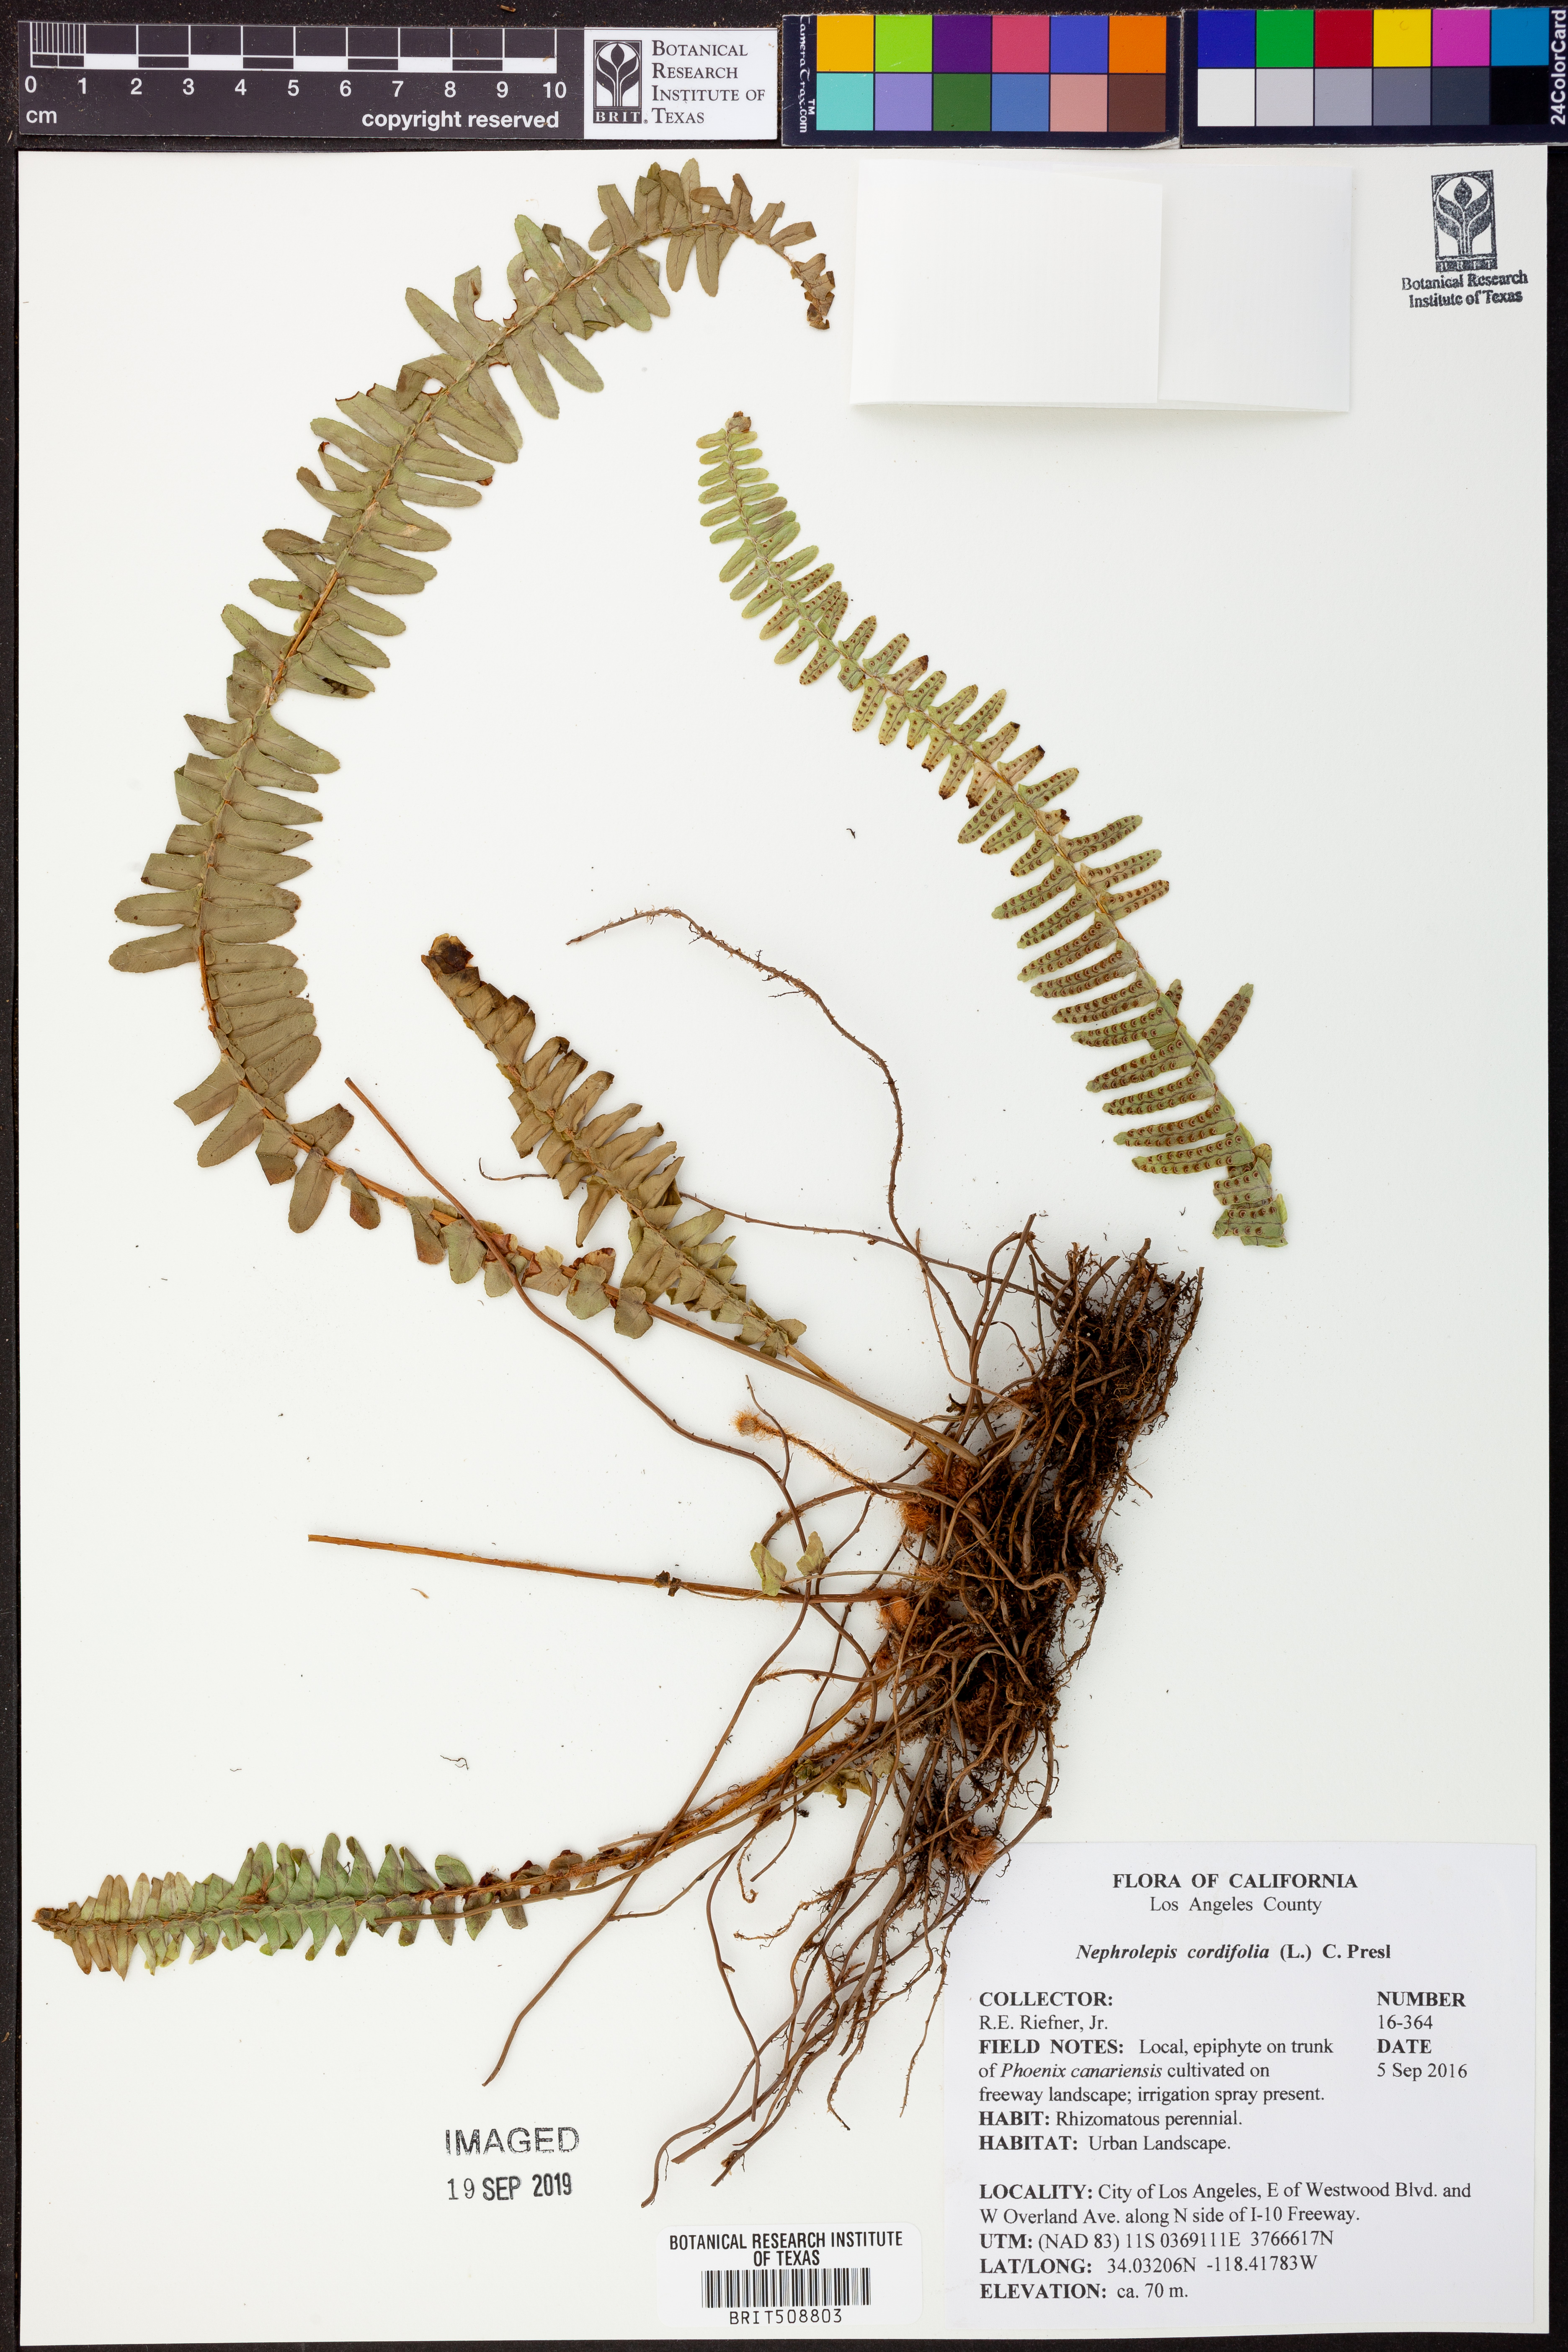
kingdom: Plantae
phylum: Tracheophyta
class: Polypodiopsida
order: Polypodiales
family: Nephrolepidaceae
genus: Nephrolepis
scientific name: Nephrolepis cordifolia
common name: Narrow swordfern
